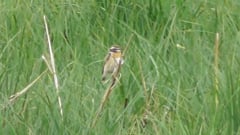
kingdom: Animalia
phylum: Chordata
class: Aves
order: Passeriformes
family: Muscicapidae
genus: Saxicola
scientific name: Saxicola rubetra
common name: Whinchat
